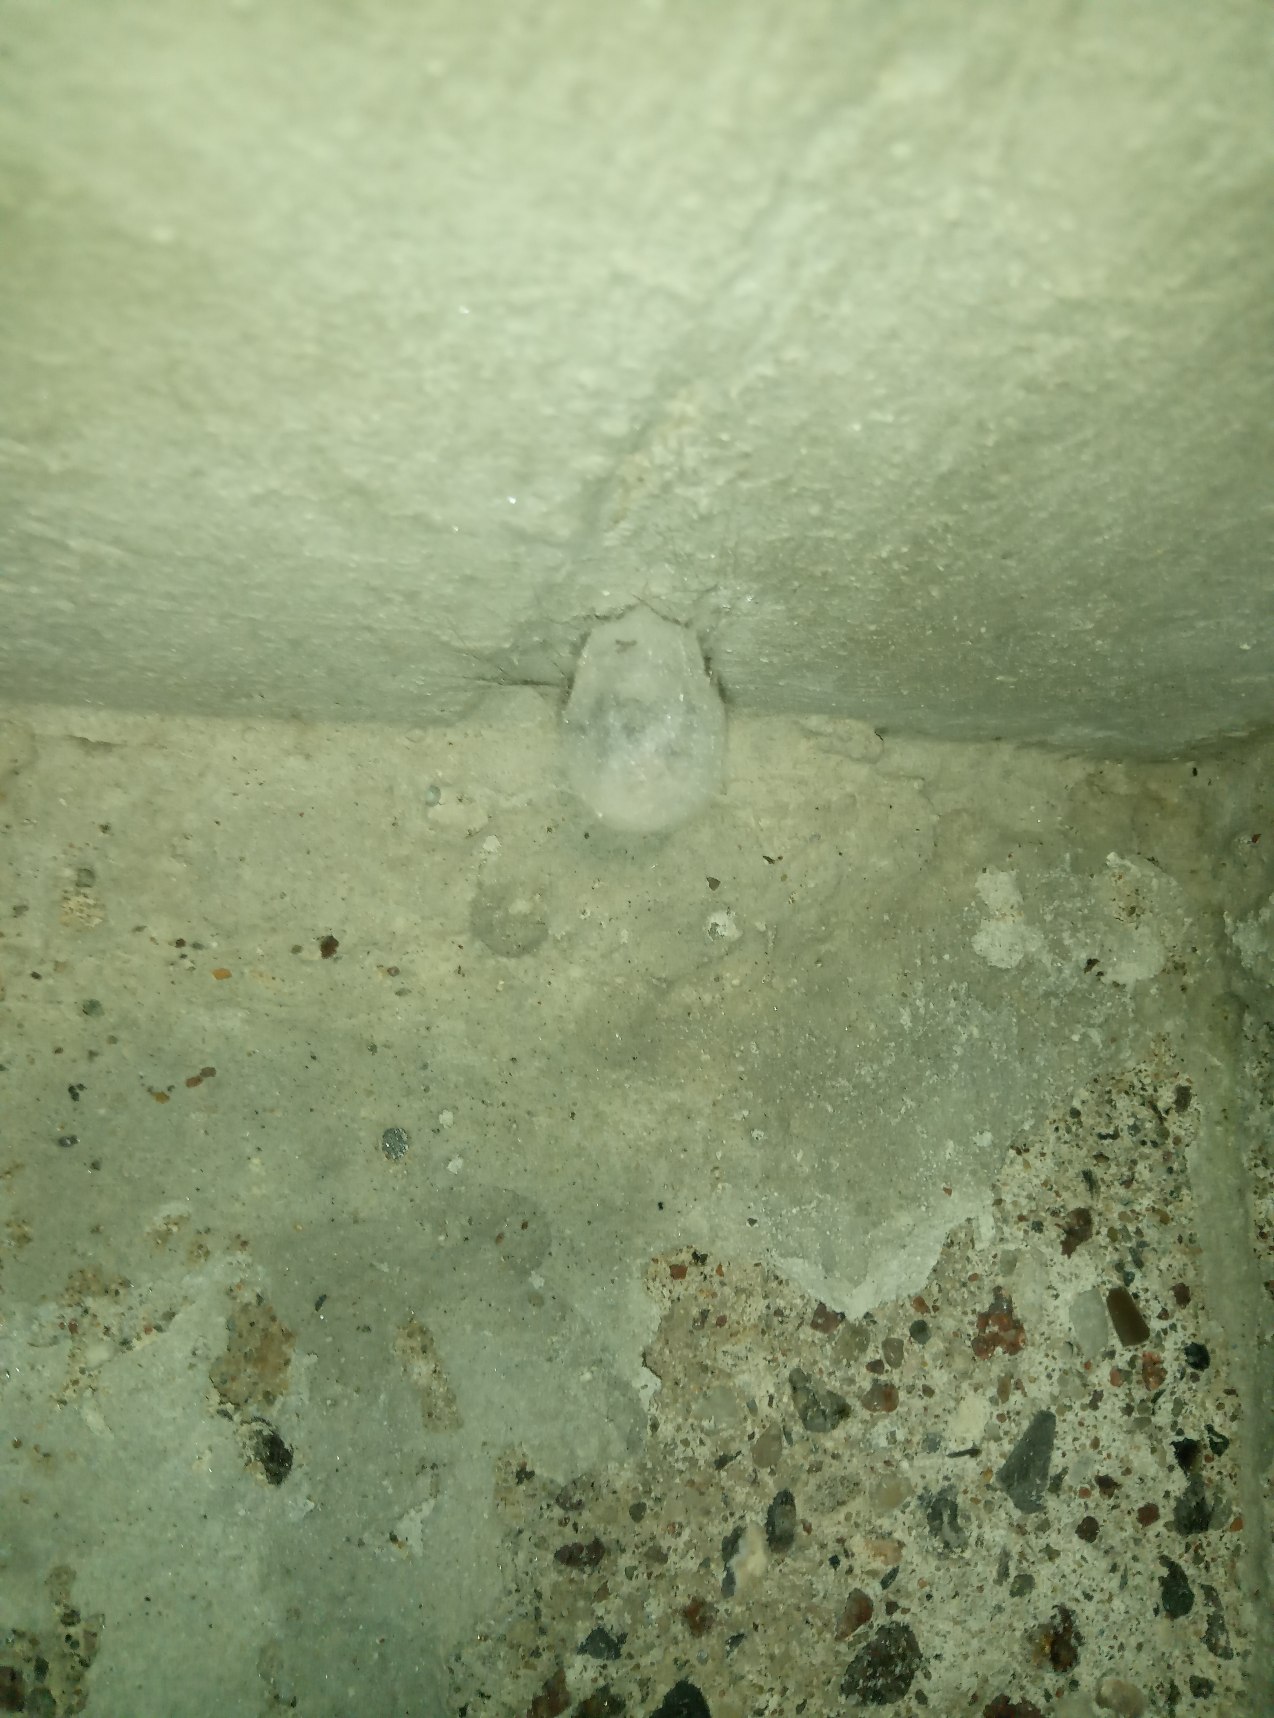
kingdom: Animalia
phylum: Arthropoda
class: Arachnida
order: Araneae
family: Tetragnathidae
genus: Meta
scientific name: Meta menardi
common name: Grotteedderkop
